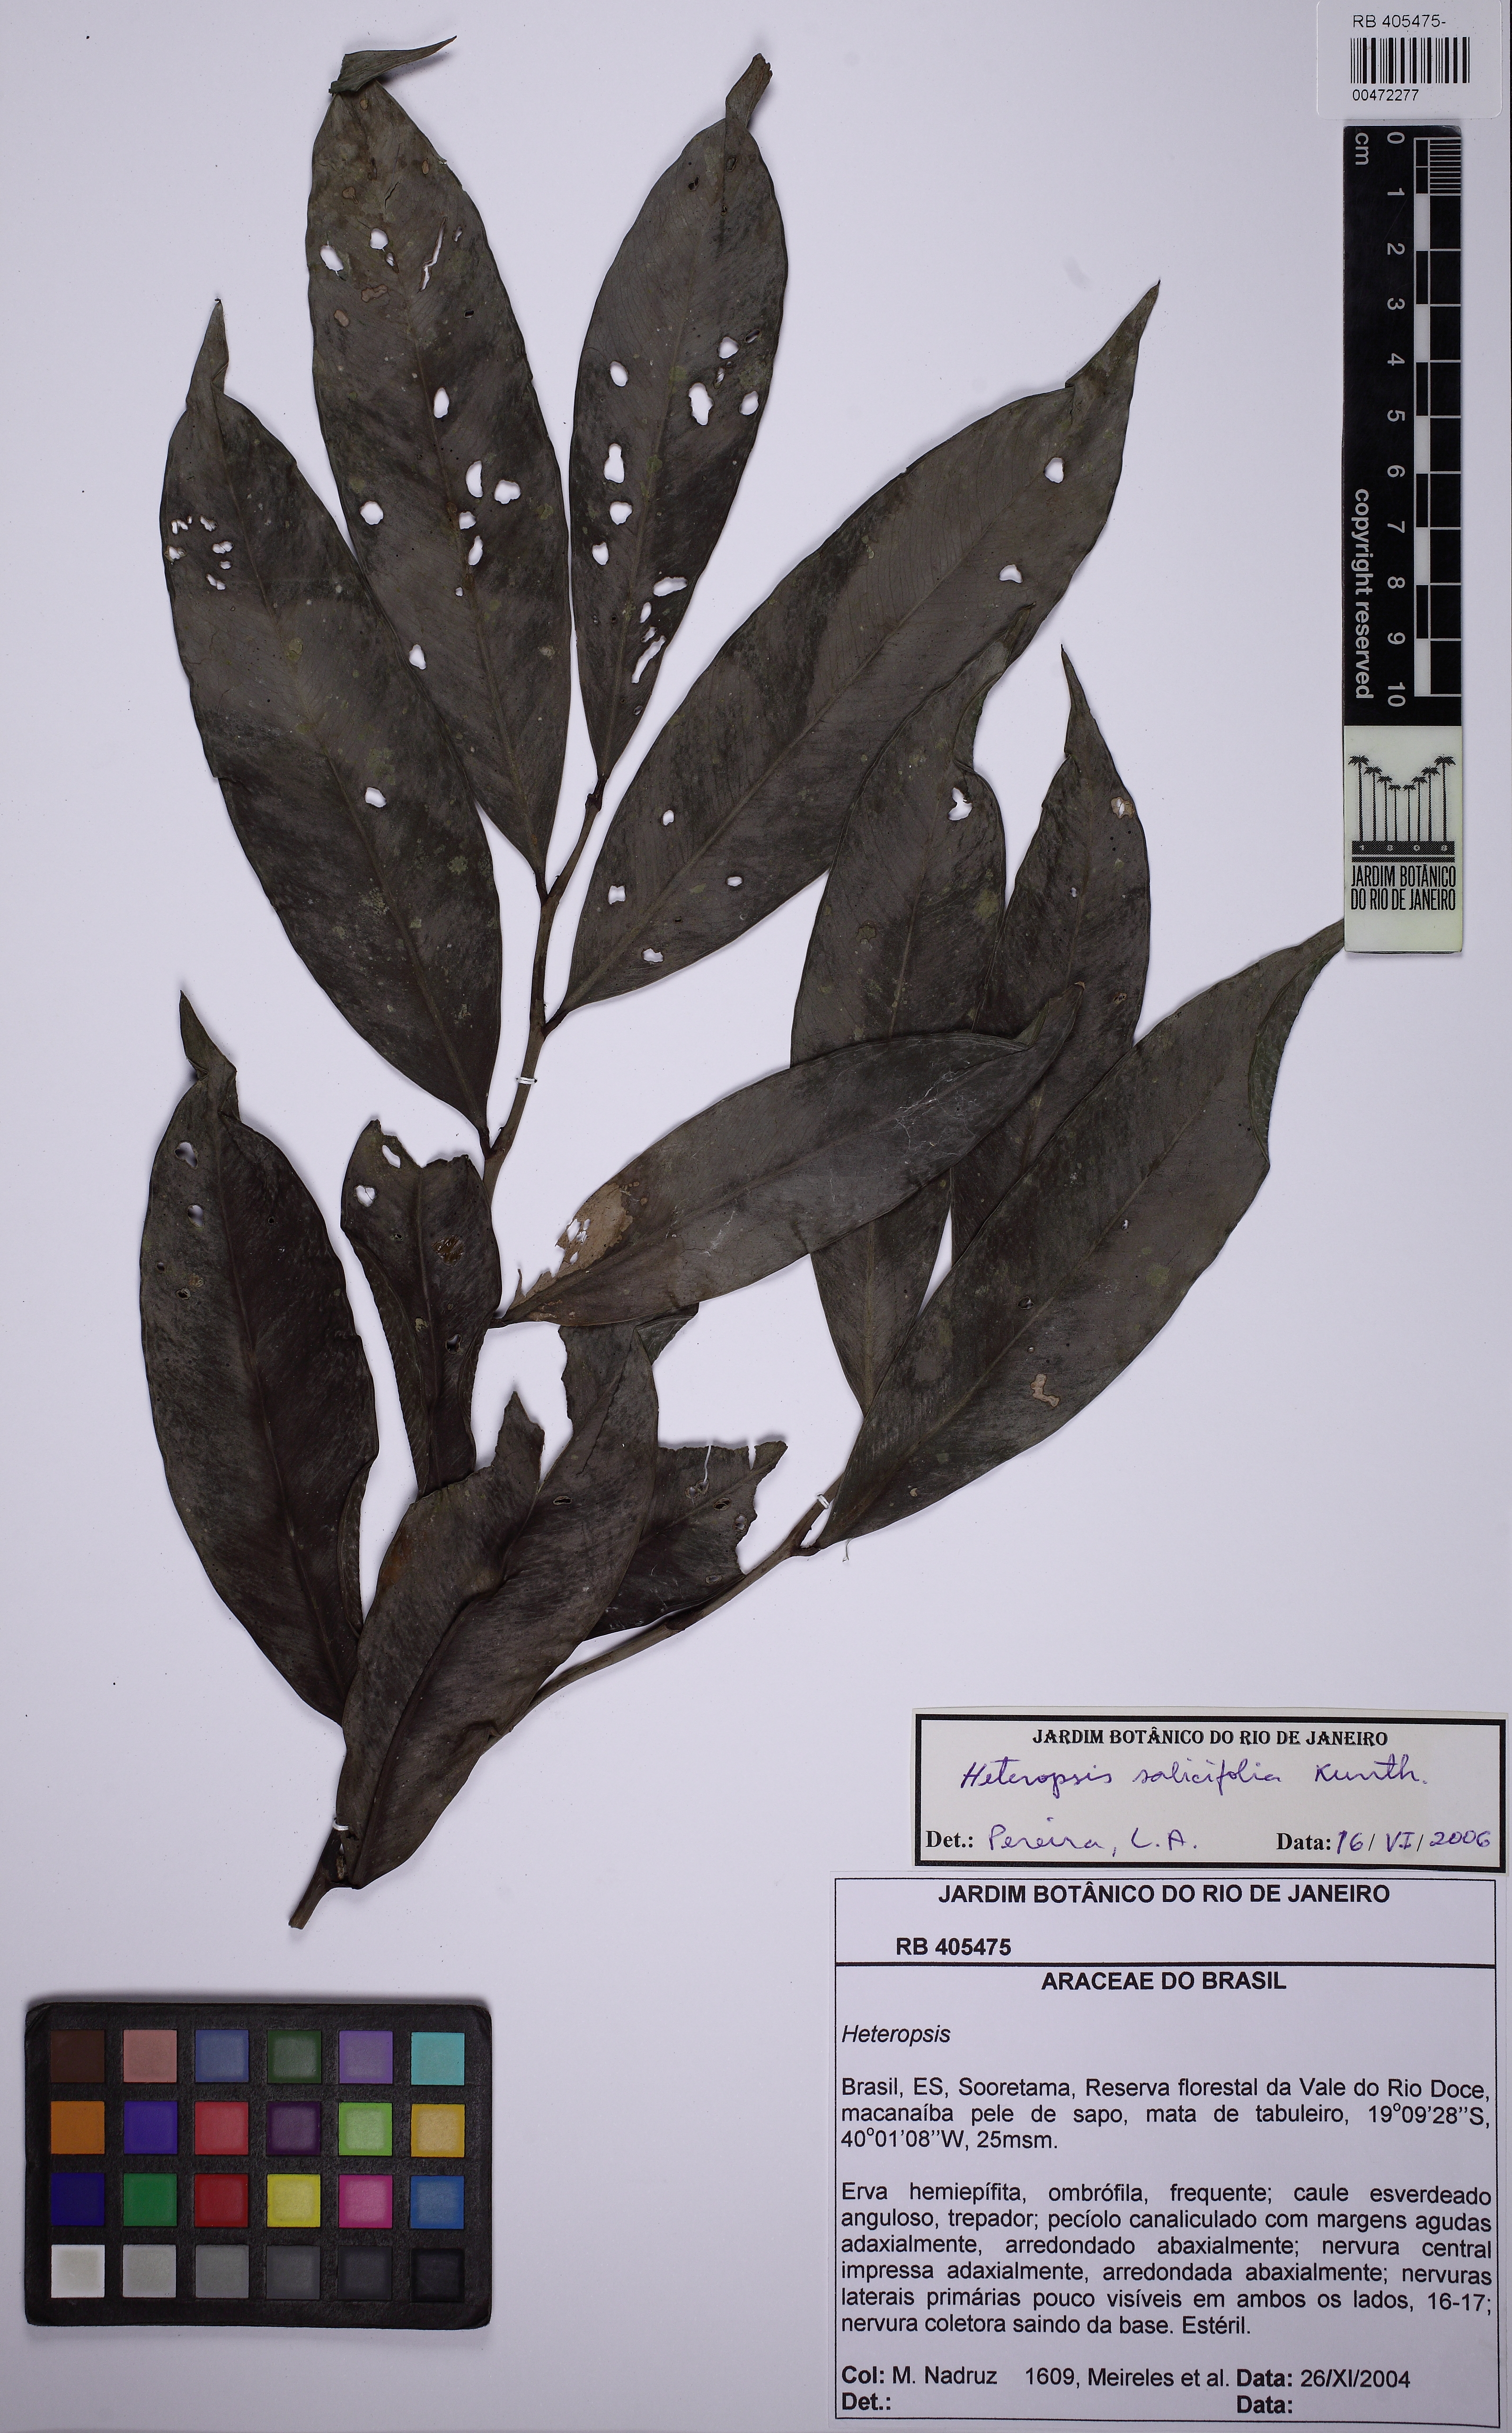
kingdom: Plantae
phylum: Tracheophyta
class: Liliopsida
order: Alismatales
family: Araceae
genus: Heteropsis
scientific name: Heteropsis salicifolia
